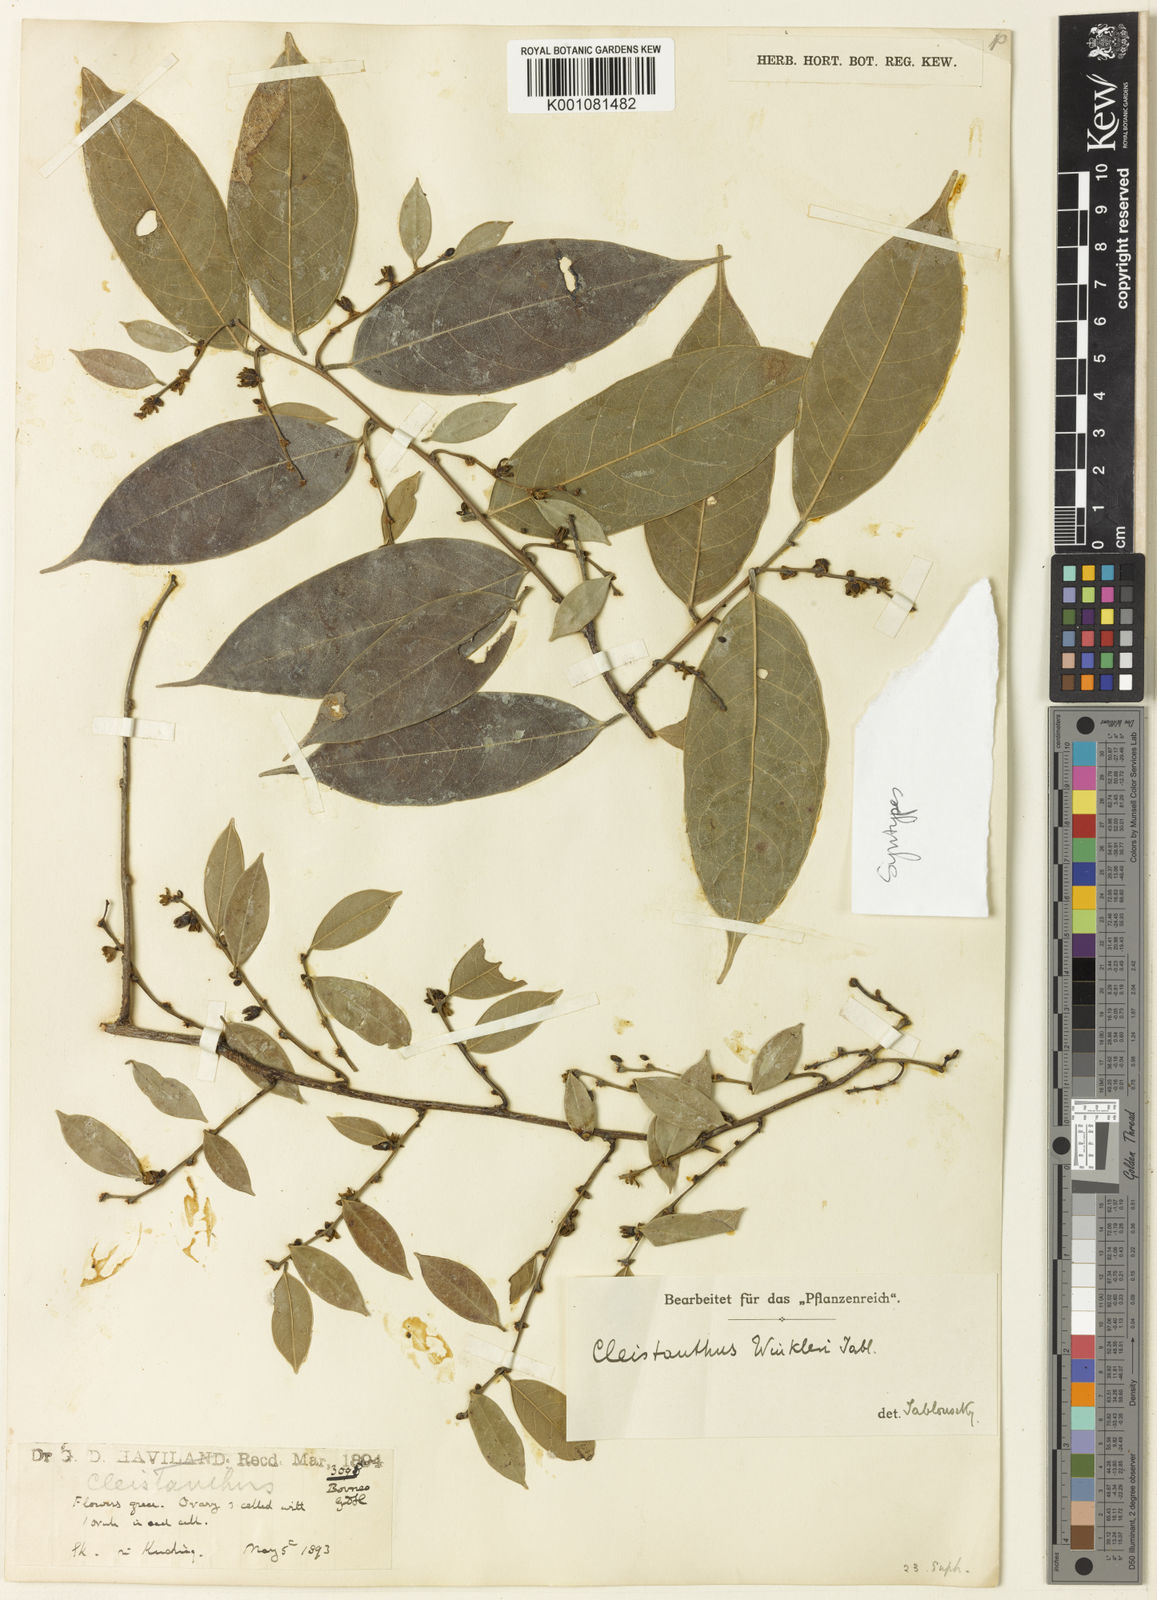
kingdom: Plantae
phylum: Tracheophyta
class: Magnoliopsida
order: Malpighiales
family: Phyllanthaceae
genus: Cleistanthus
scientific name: Cleistanthus winkleri
